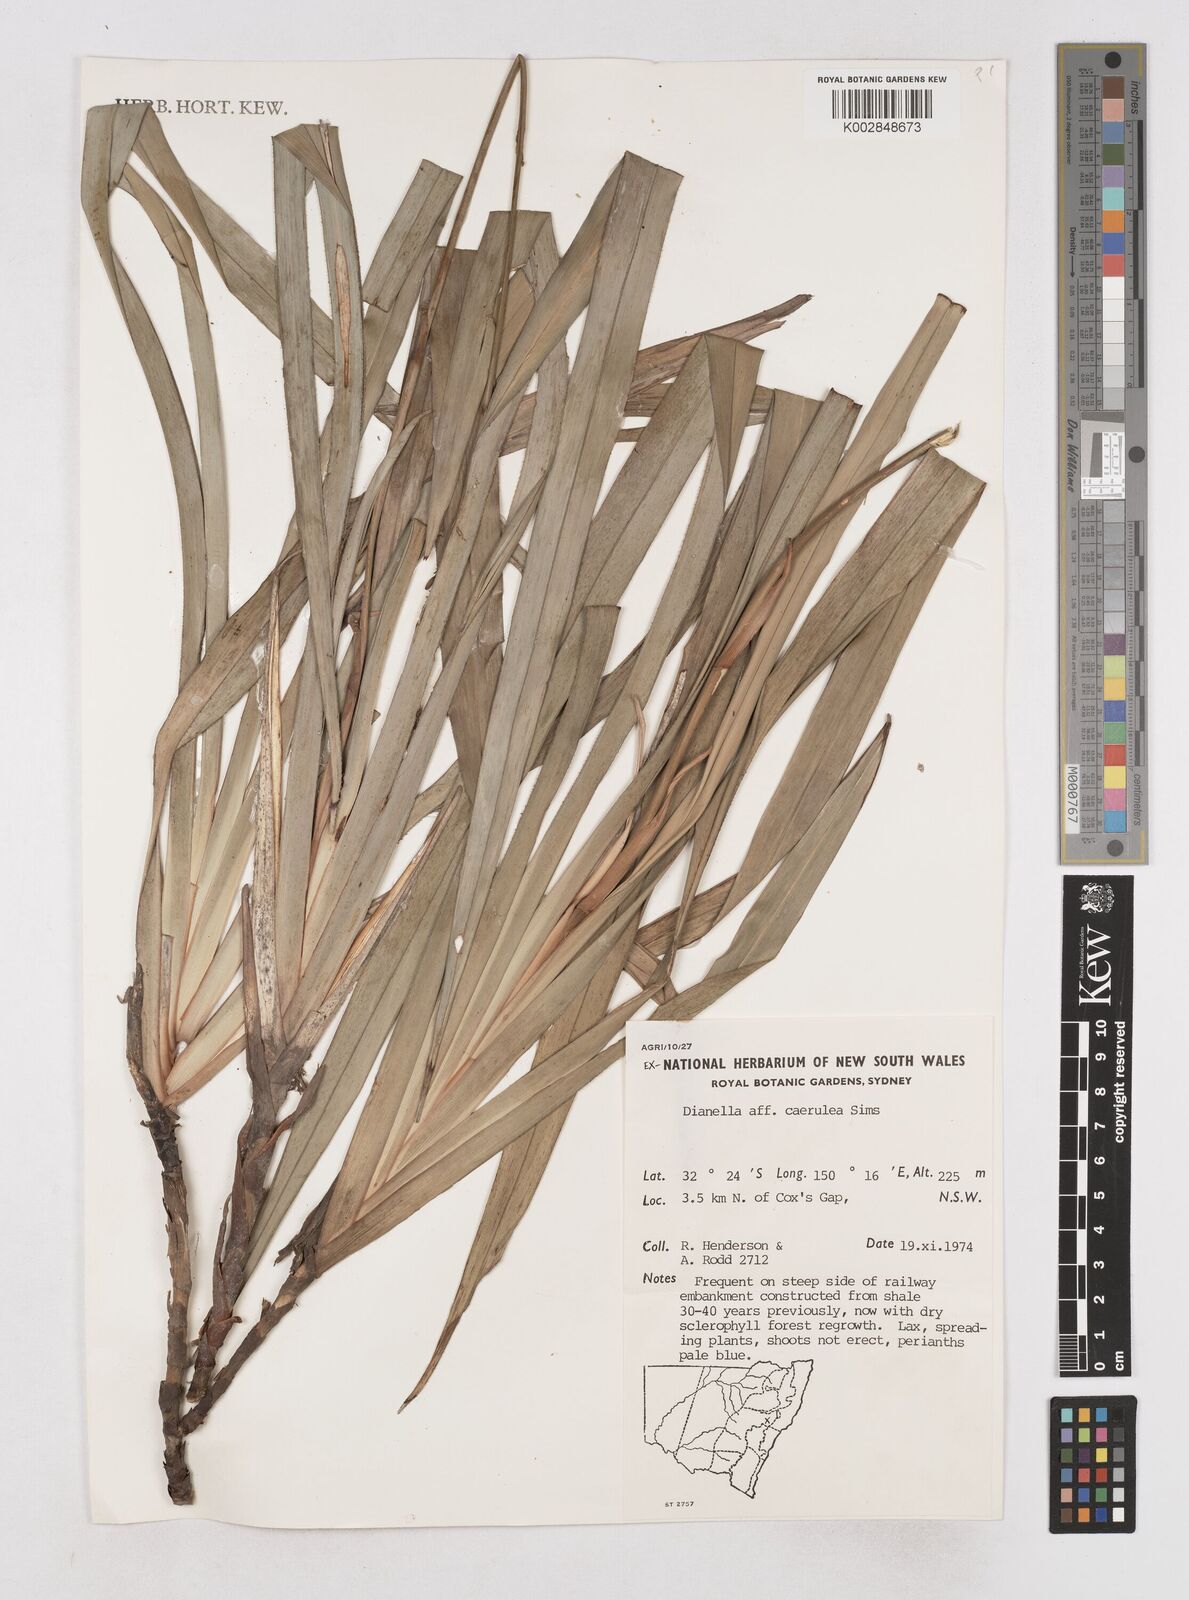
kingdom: Plantae
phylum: Tracheophyta
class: Liliopsida
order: Asparagales
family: Asphodelaceae
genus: Dianella
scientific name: Dianella caerulea
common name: Blue flax-lily
